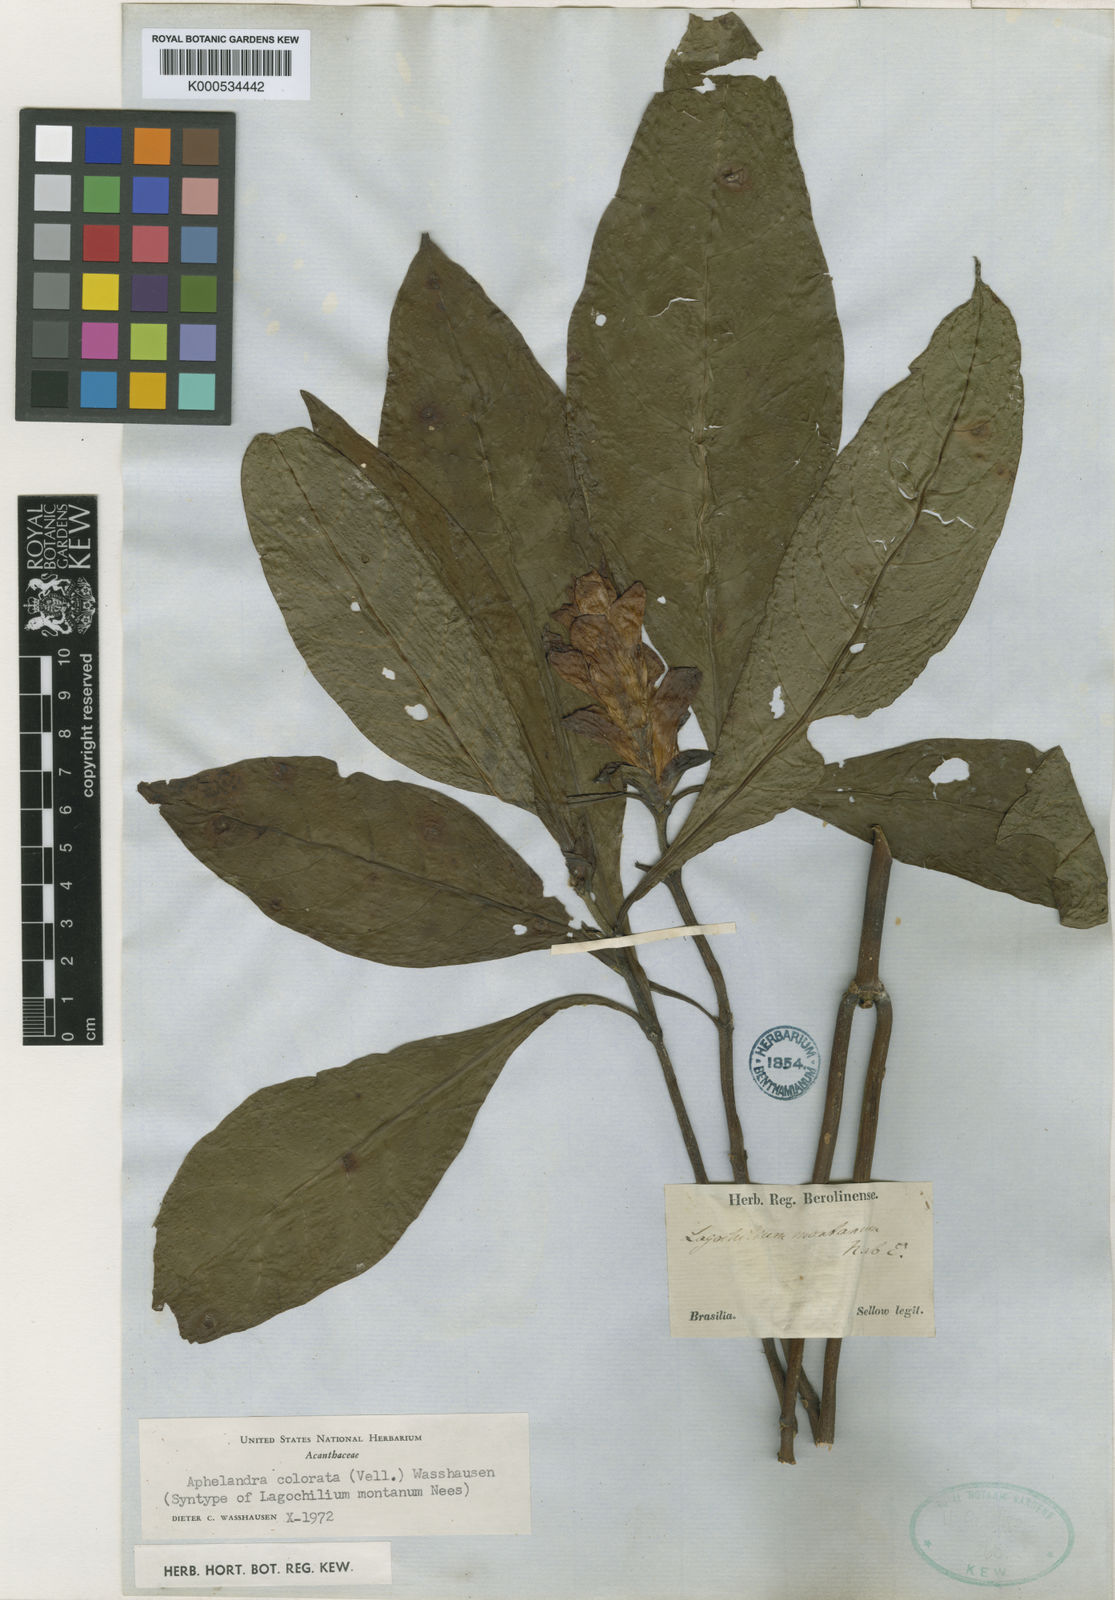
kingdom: Plantae
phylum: Tracheophyta
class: Magnoliopsida
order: Lamiales
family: Acanthaceae
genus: Aphelandra
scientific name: Aphelandra colorata
